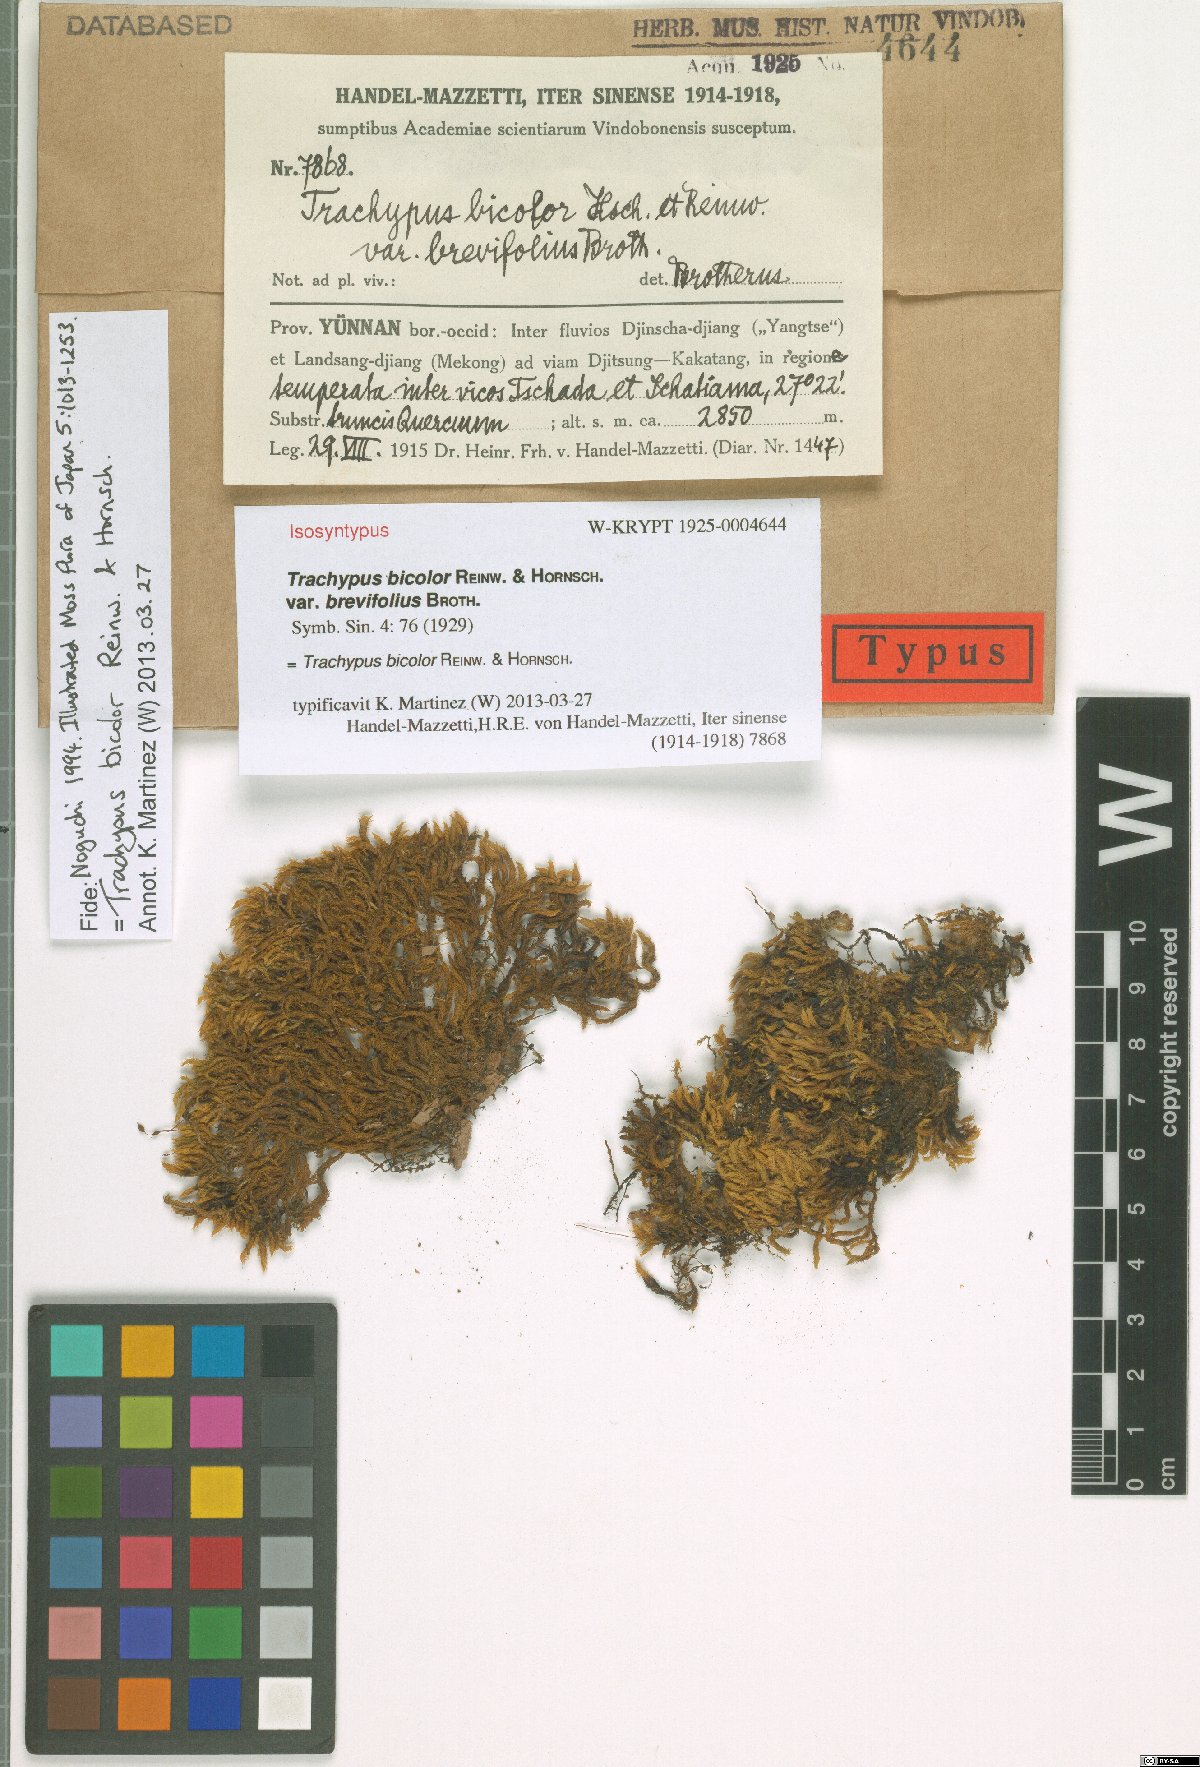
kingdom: Plantae
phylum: Bryophyta
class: Bryopsida
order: Hypnales
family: Meteoriaceae
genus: Trachypus
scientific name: Trachypus bicolor
